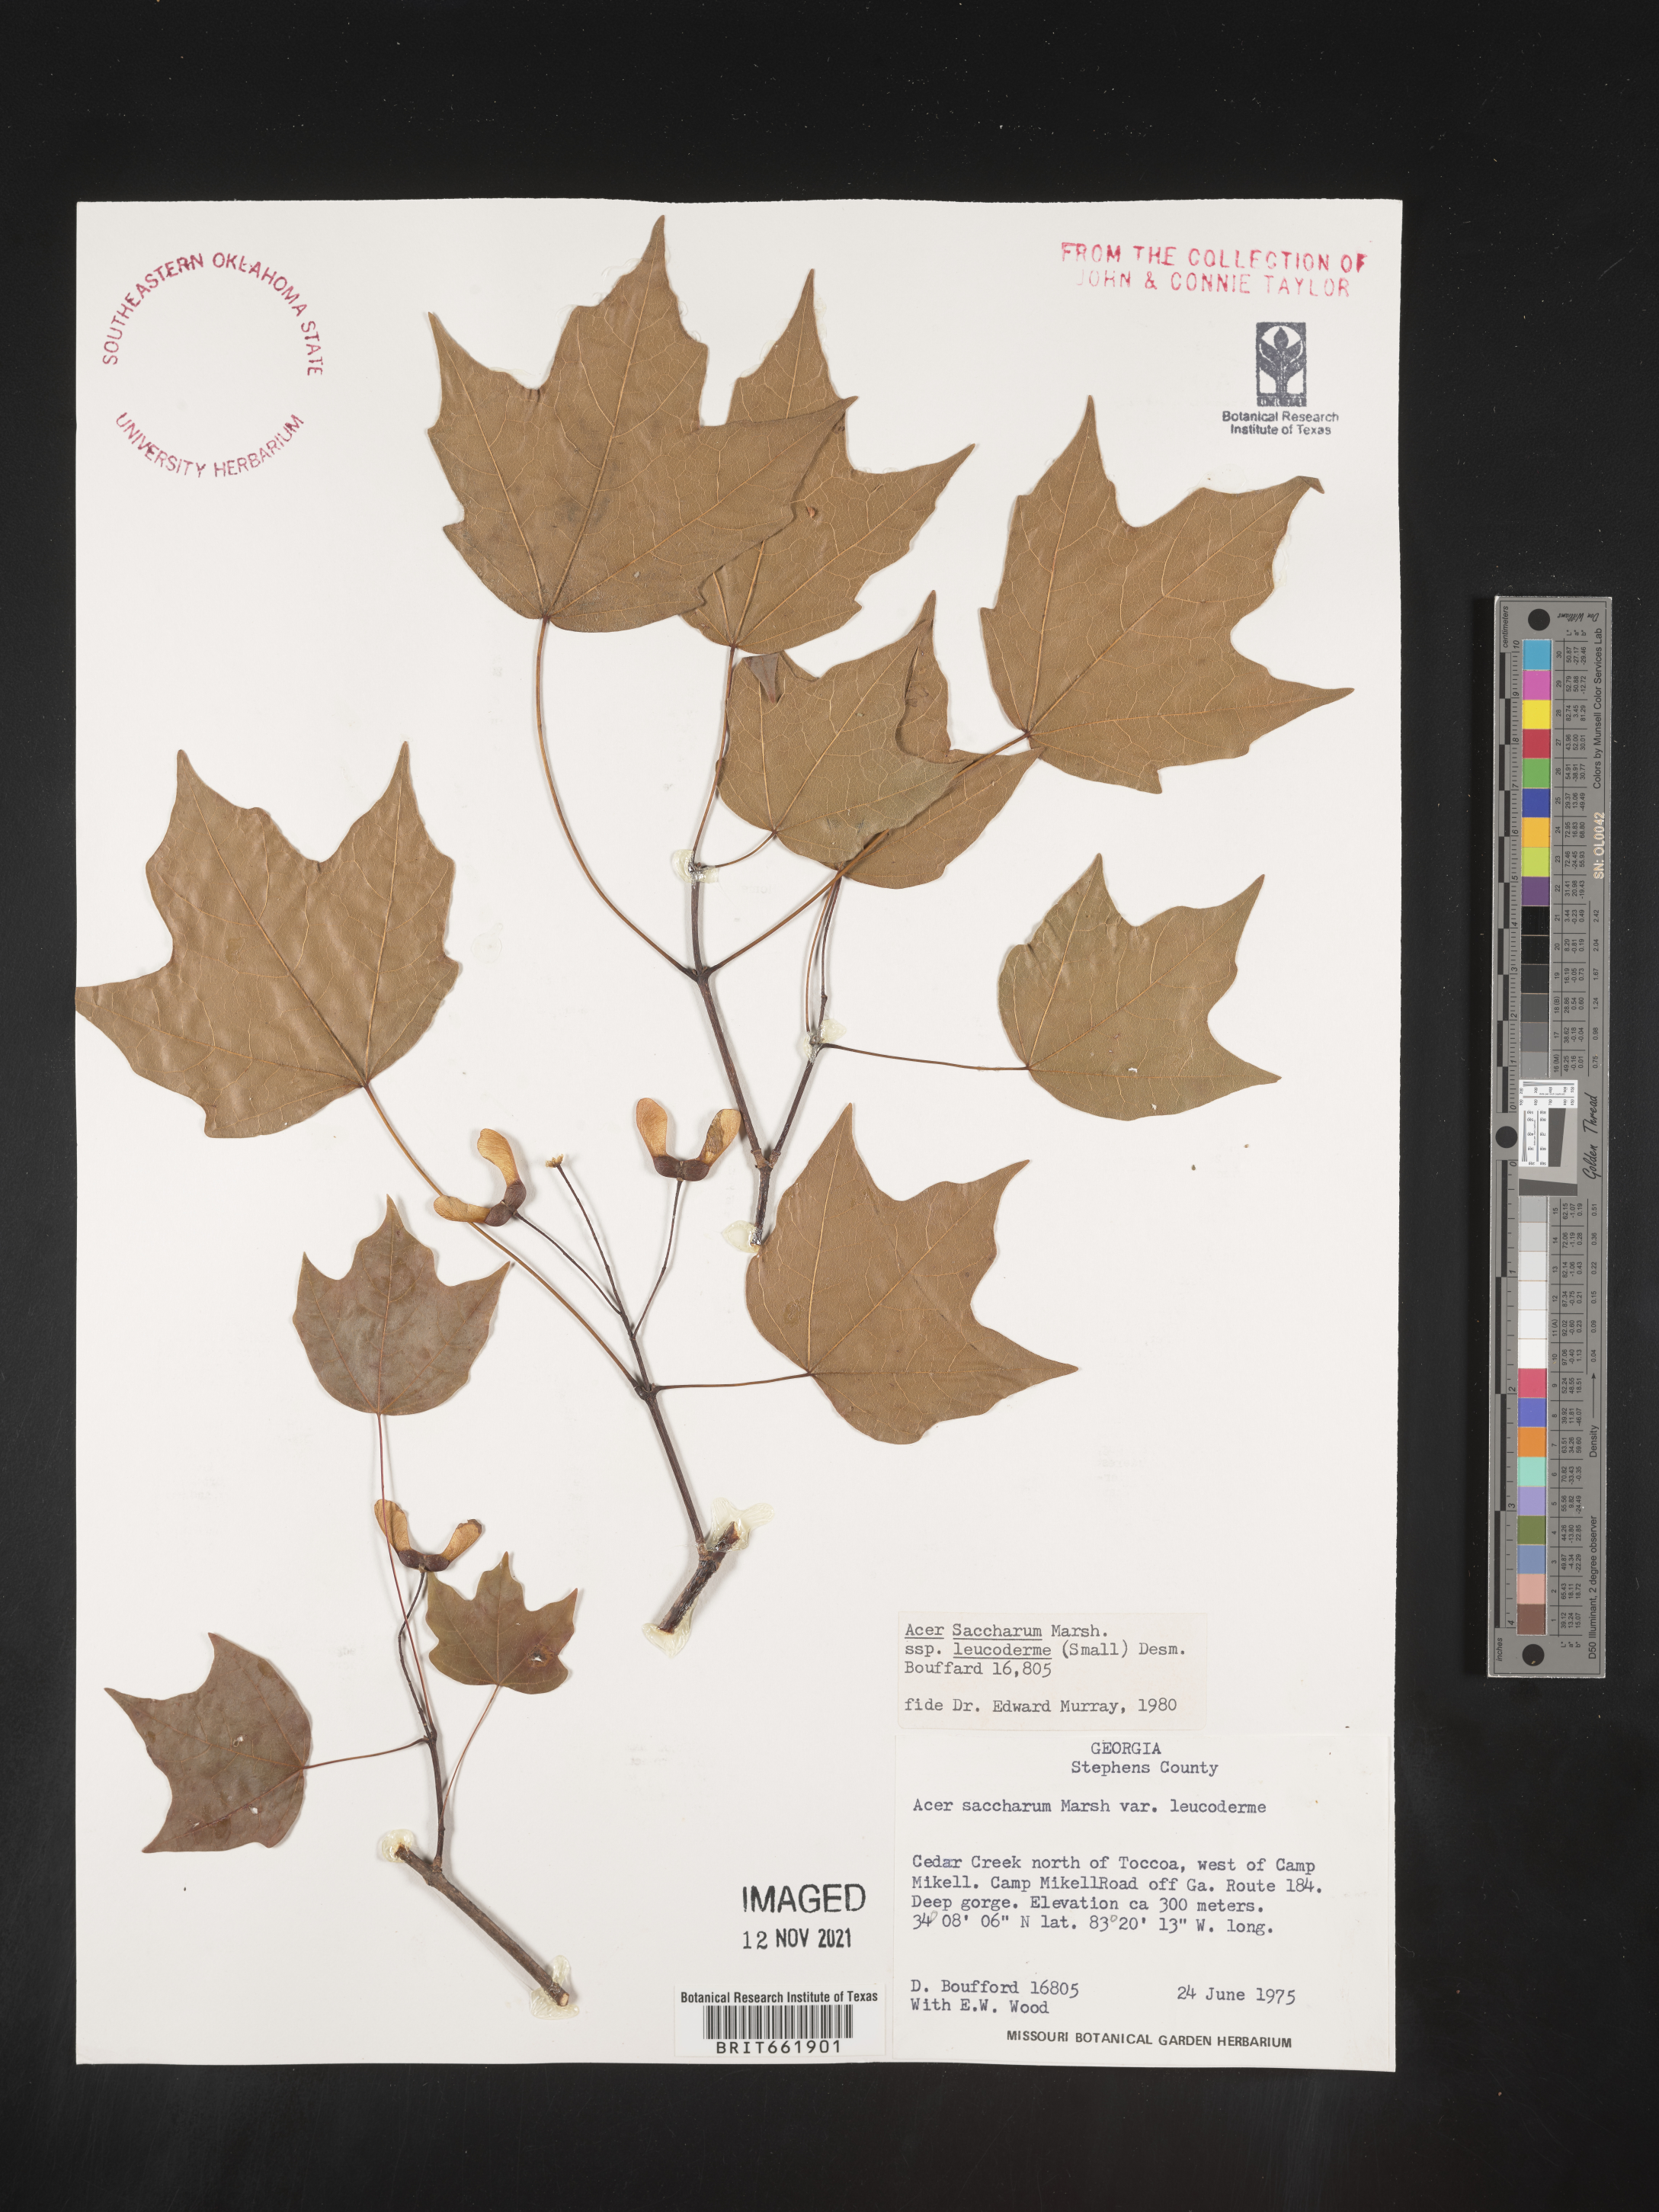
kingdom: Plantae
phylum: Tracheophyta
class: Magnoliopsida
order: Sapindales
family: Sapindaceae
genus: Acer
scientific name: Acer leucoderme
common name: Chalk maple
